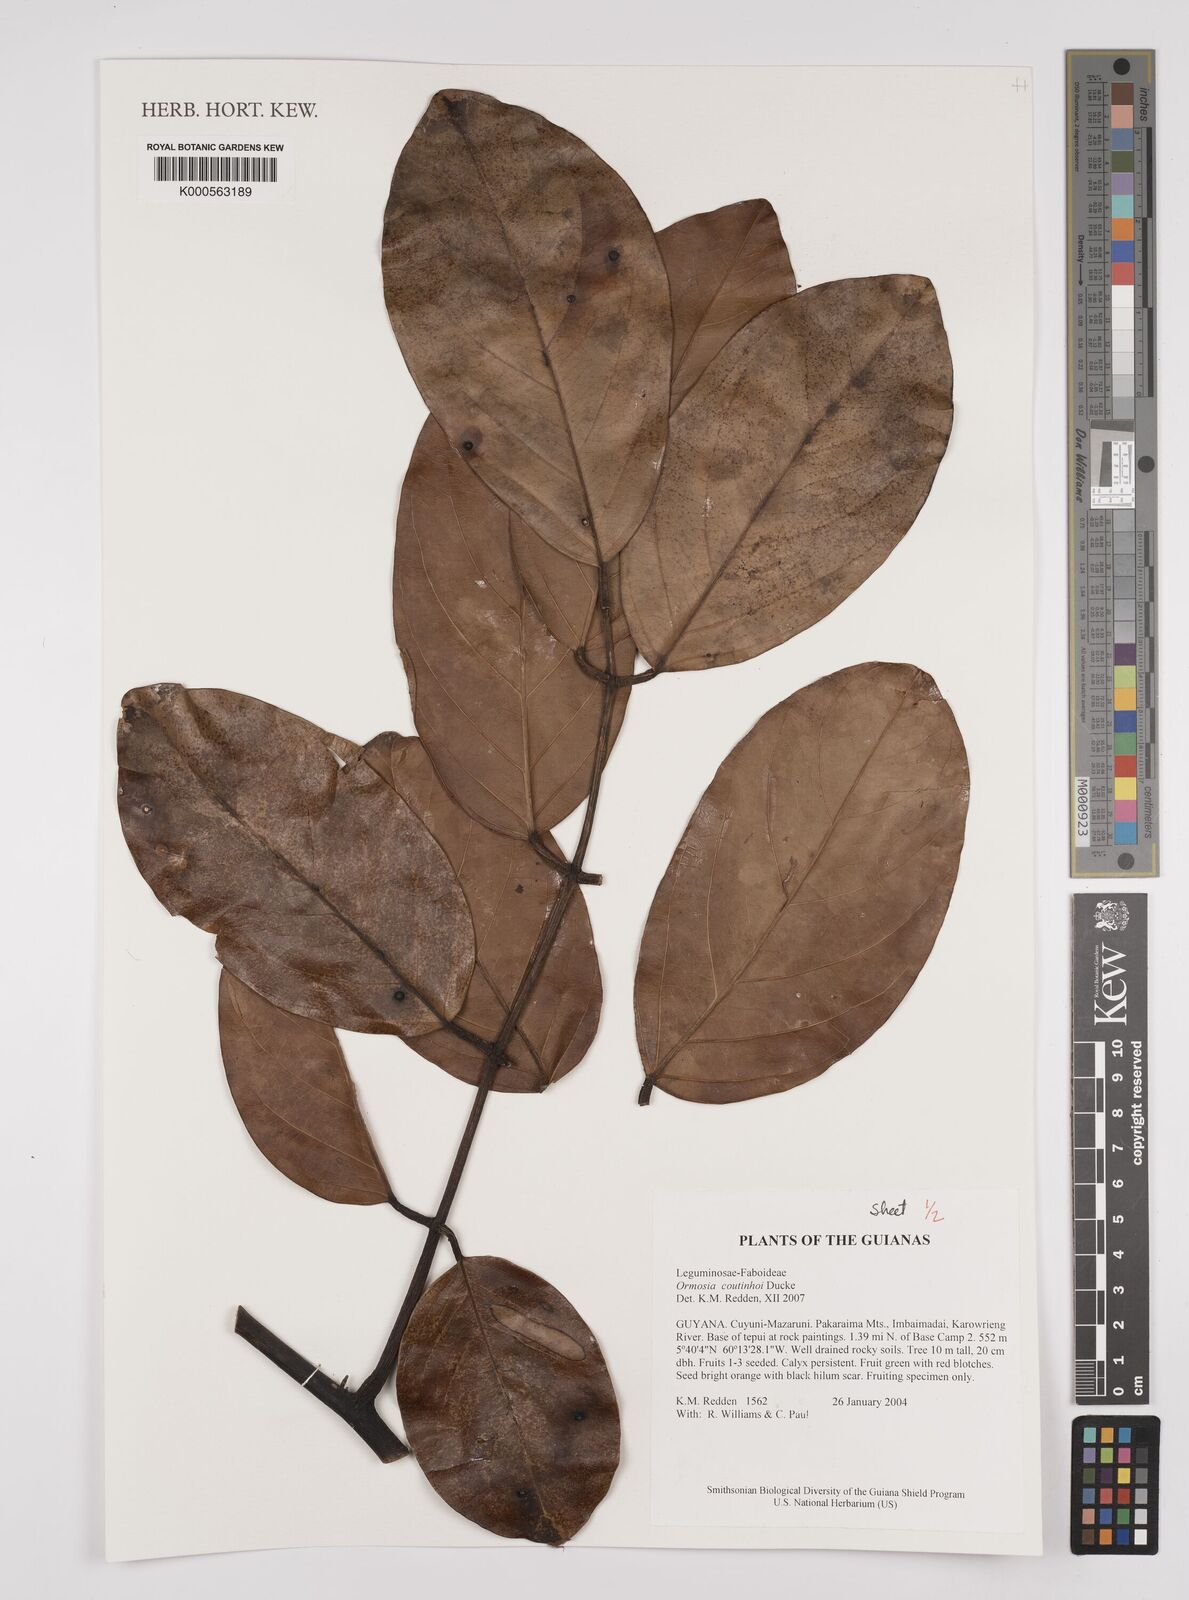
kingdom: Plantae
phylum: Tracheophyta
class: Magnoliopsida
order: Fabales
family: Fabaceae
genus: Ormosia
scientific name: Ormosia coutinhoi
